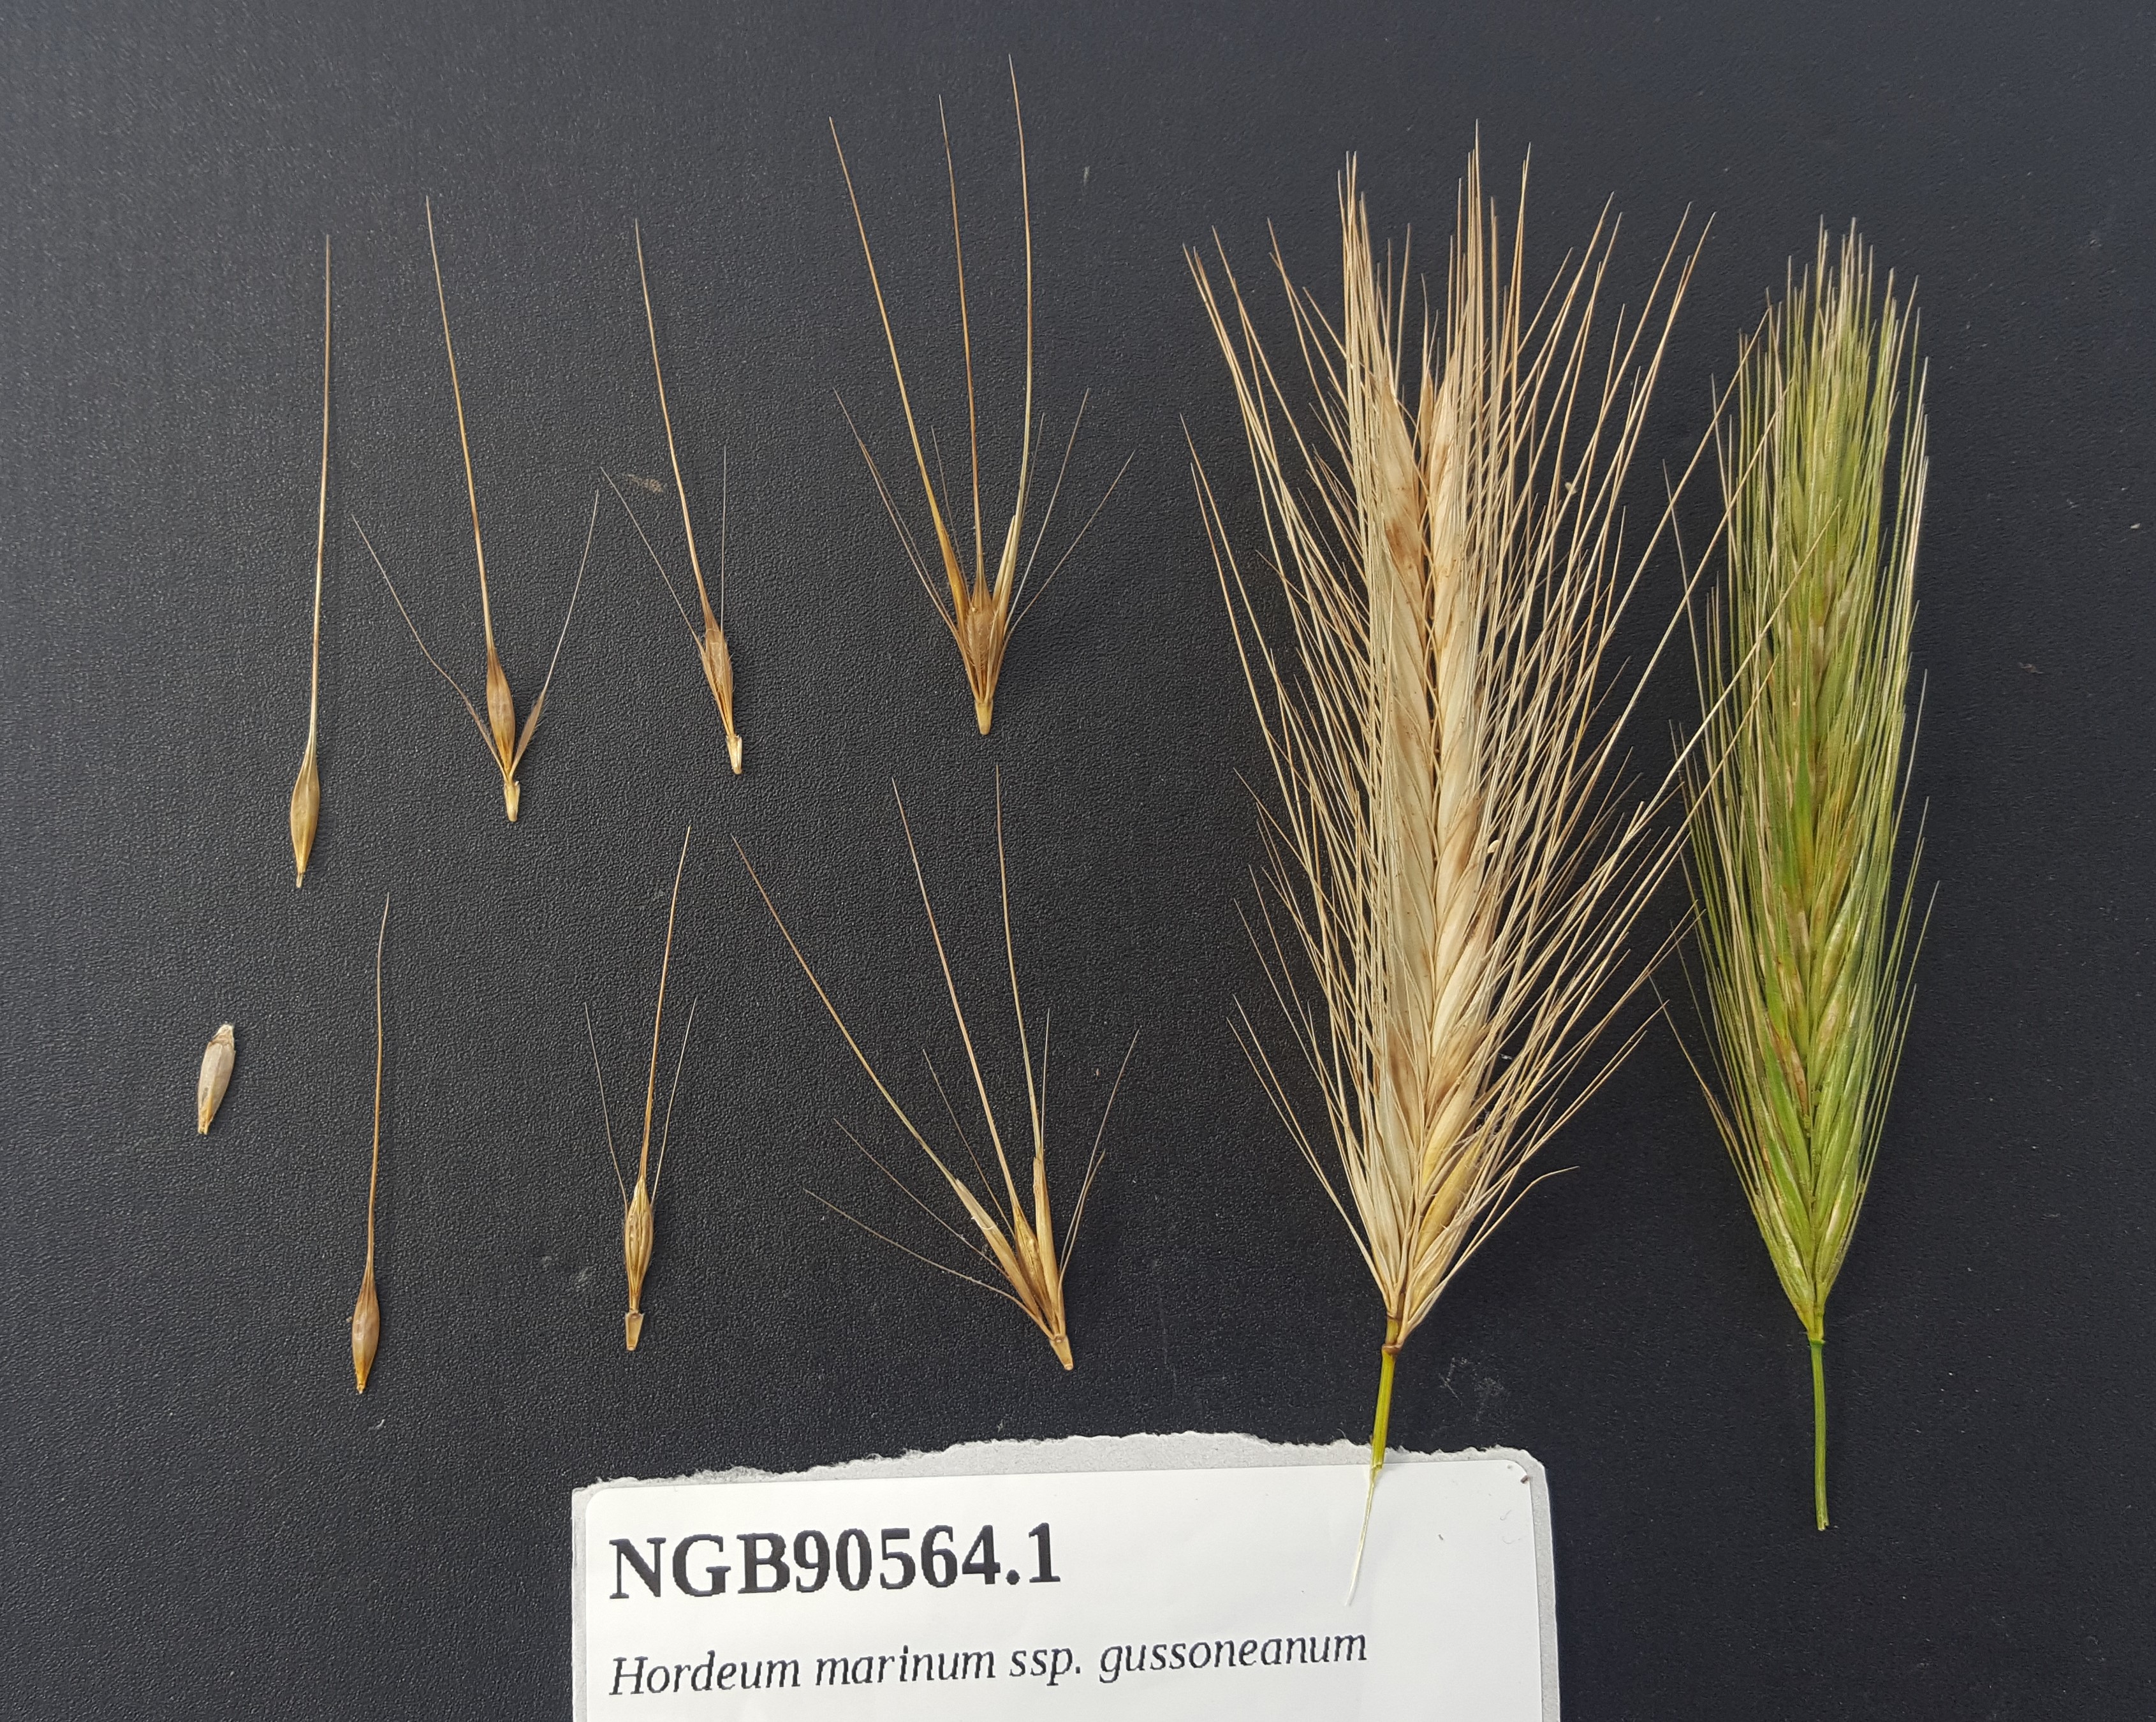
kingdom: Plantae
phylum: Tracheophyta
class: Liliopsida
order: Poales
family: Poaceae
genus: Hordeum
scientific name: Hordeum marinum
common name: Sea barley
